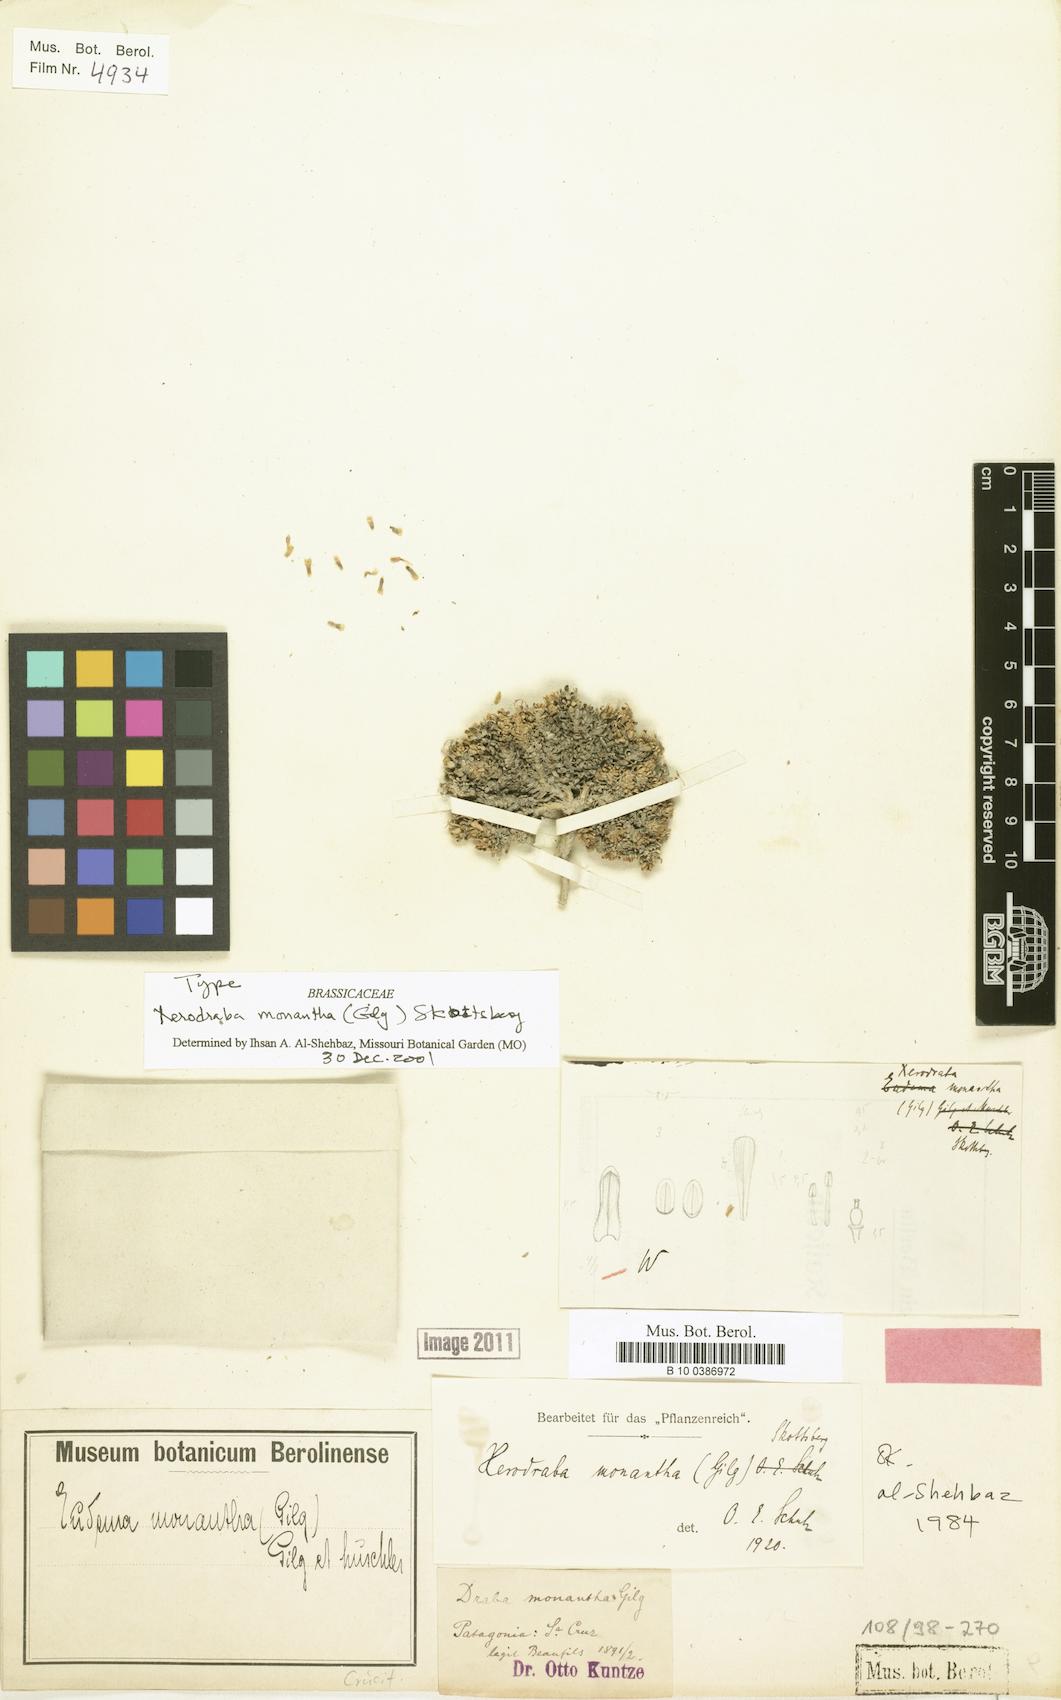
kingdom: Plantae
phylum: Tracheophyta
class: Magnoliopsida
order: Brassicales
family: Brassicaceae
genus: Xerodraba
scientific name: Xerodraba monantha
